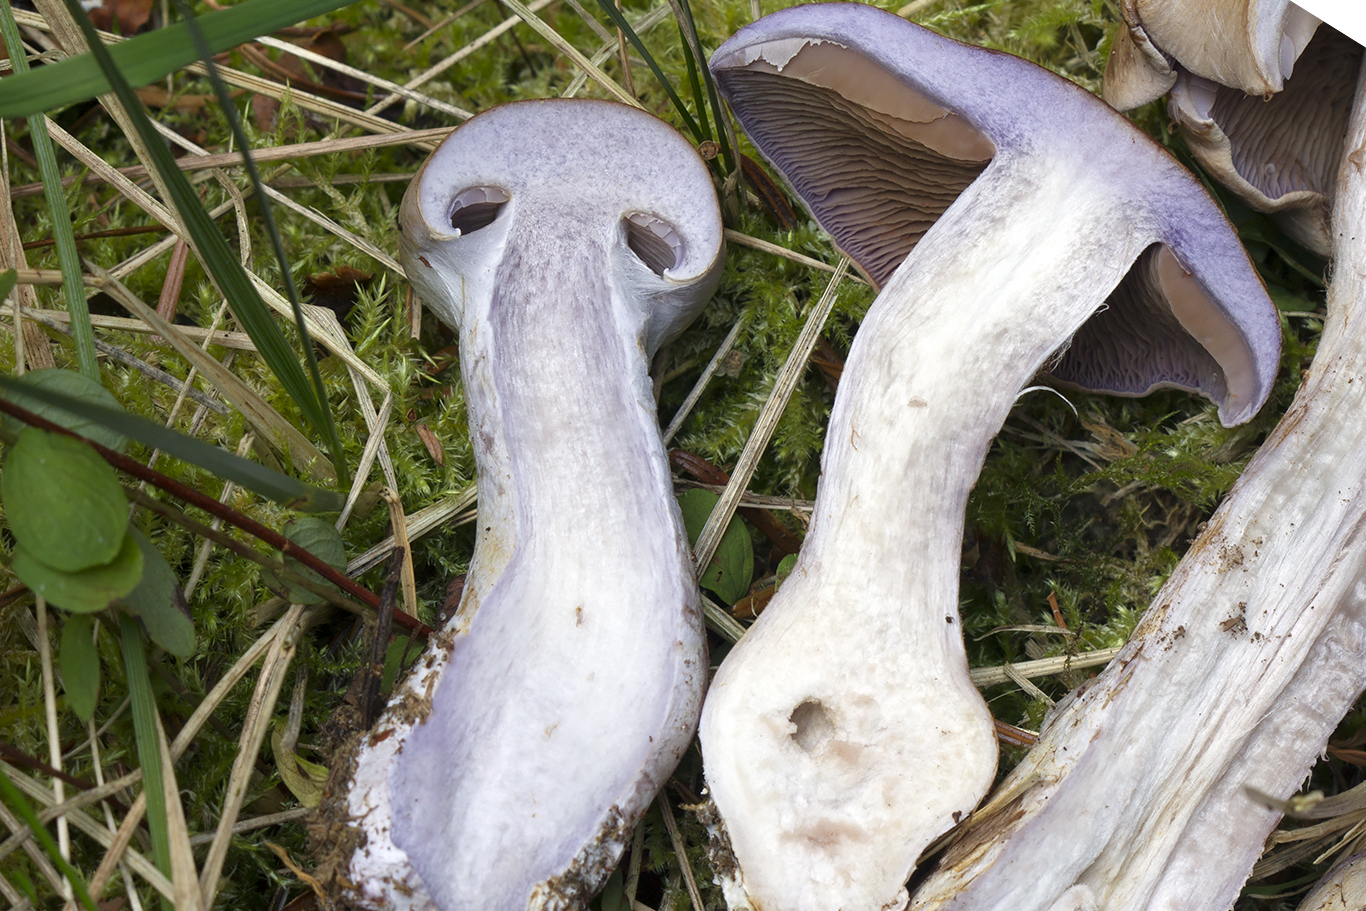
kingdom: Fungi
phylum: Basidiomycota
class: Agaricomycetes
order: Agaricales
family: Cortinariaceae
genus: Phlegmacium
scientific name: Phlegmacium eliae
